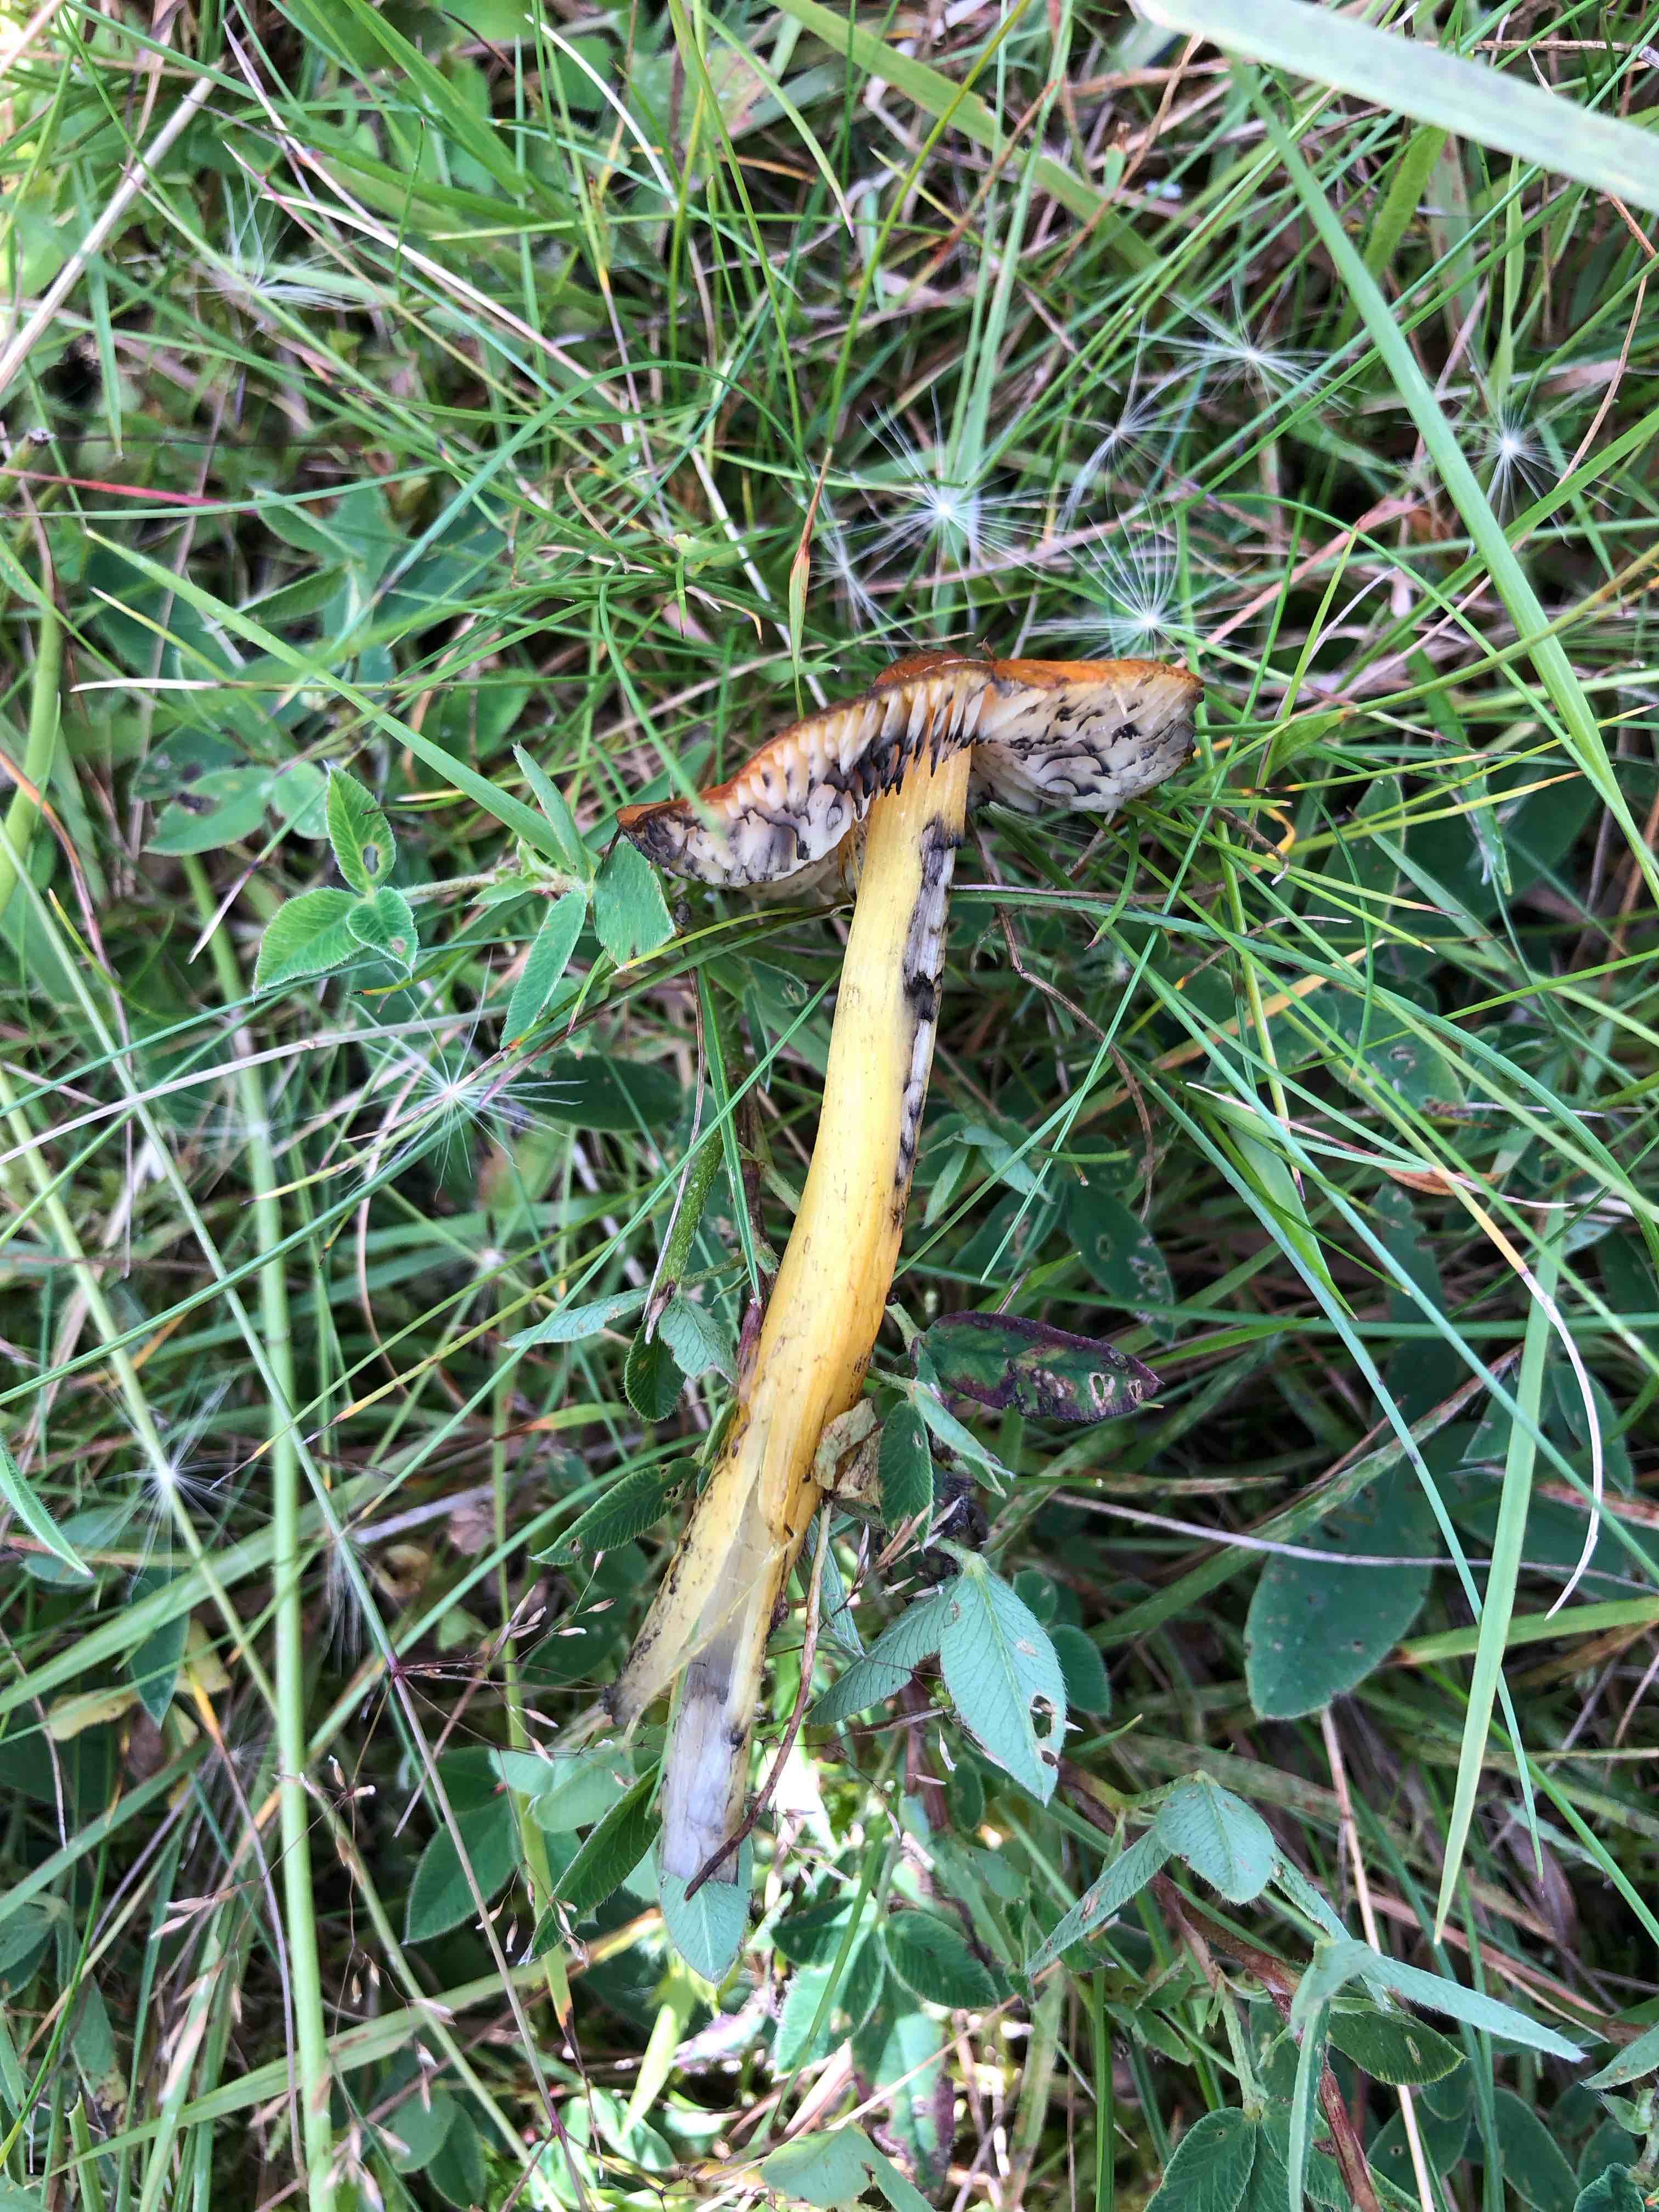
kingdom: Fungi
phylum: Basidiomycota
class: Agaricomycetes
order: Agaricales
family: Hygrophoraceae
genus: Hygrocybe
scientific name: Hygrocybe conica
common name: kegle-vokshat
